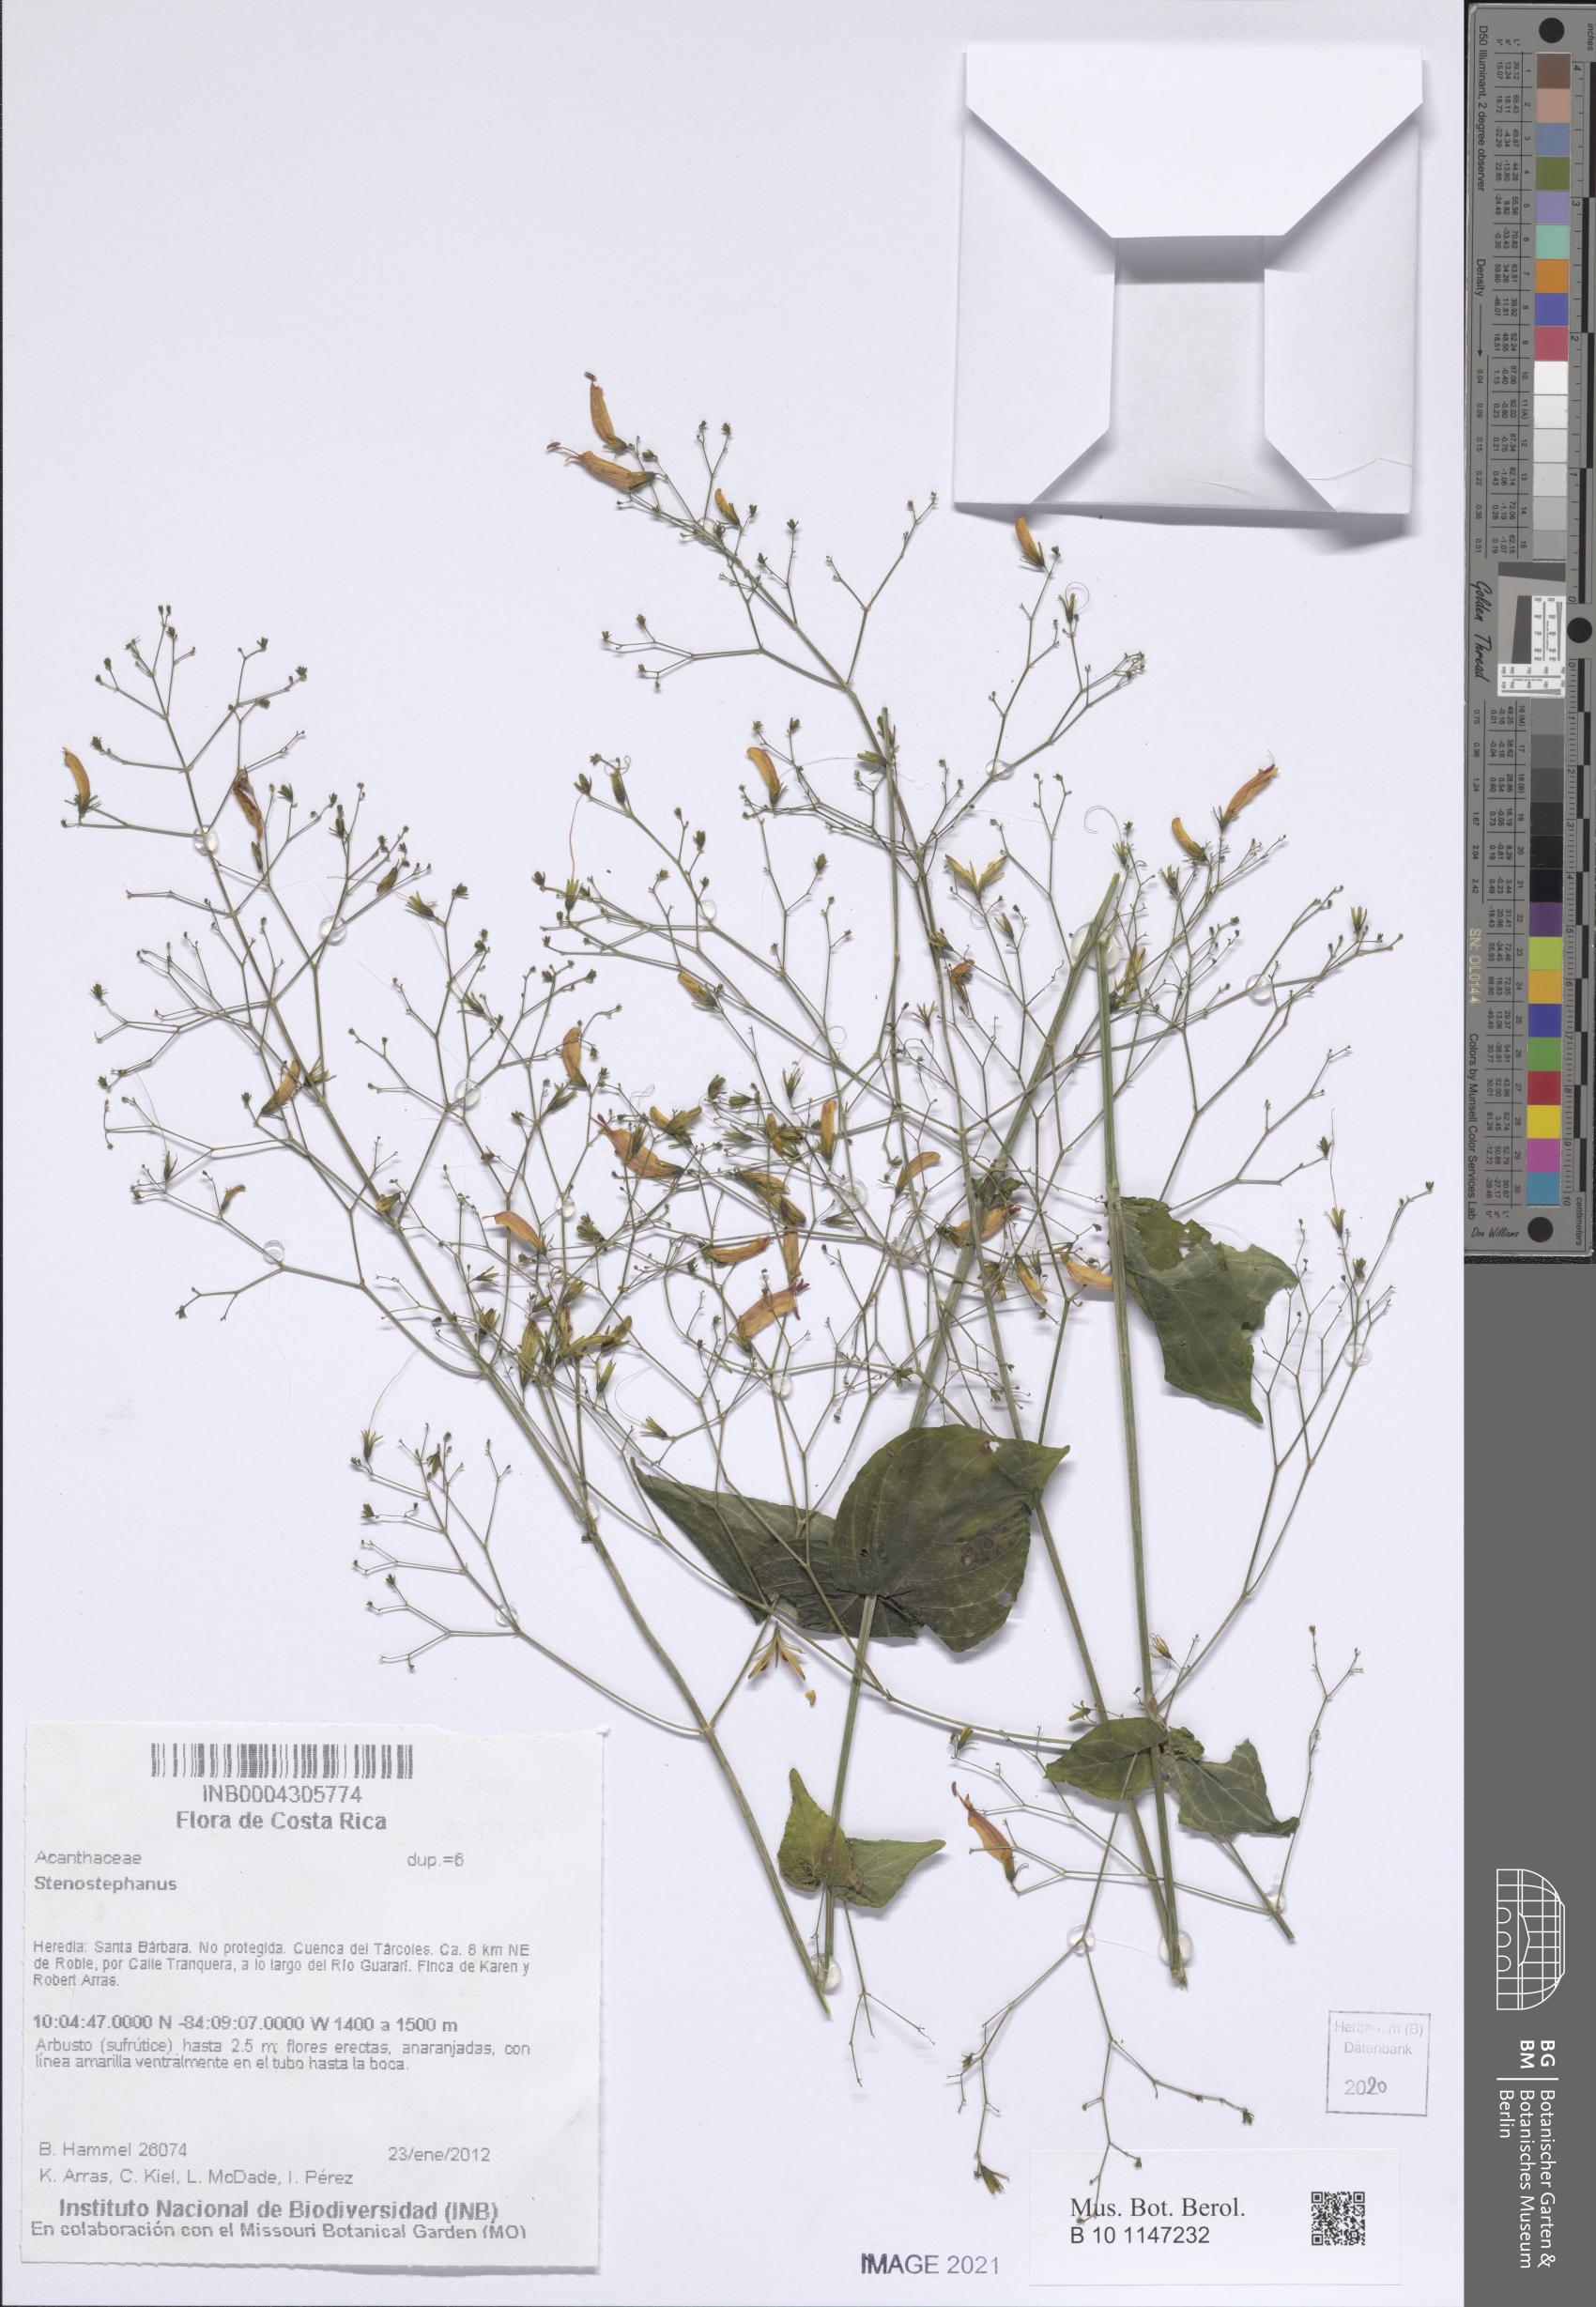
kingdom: Plantae
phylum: Tracheophyta
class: Magnoliopsida
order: Lamiales
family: Acanthaceae
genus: Stenostephanus
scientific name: Stenostephanus
